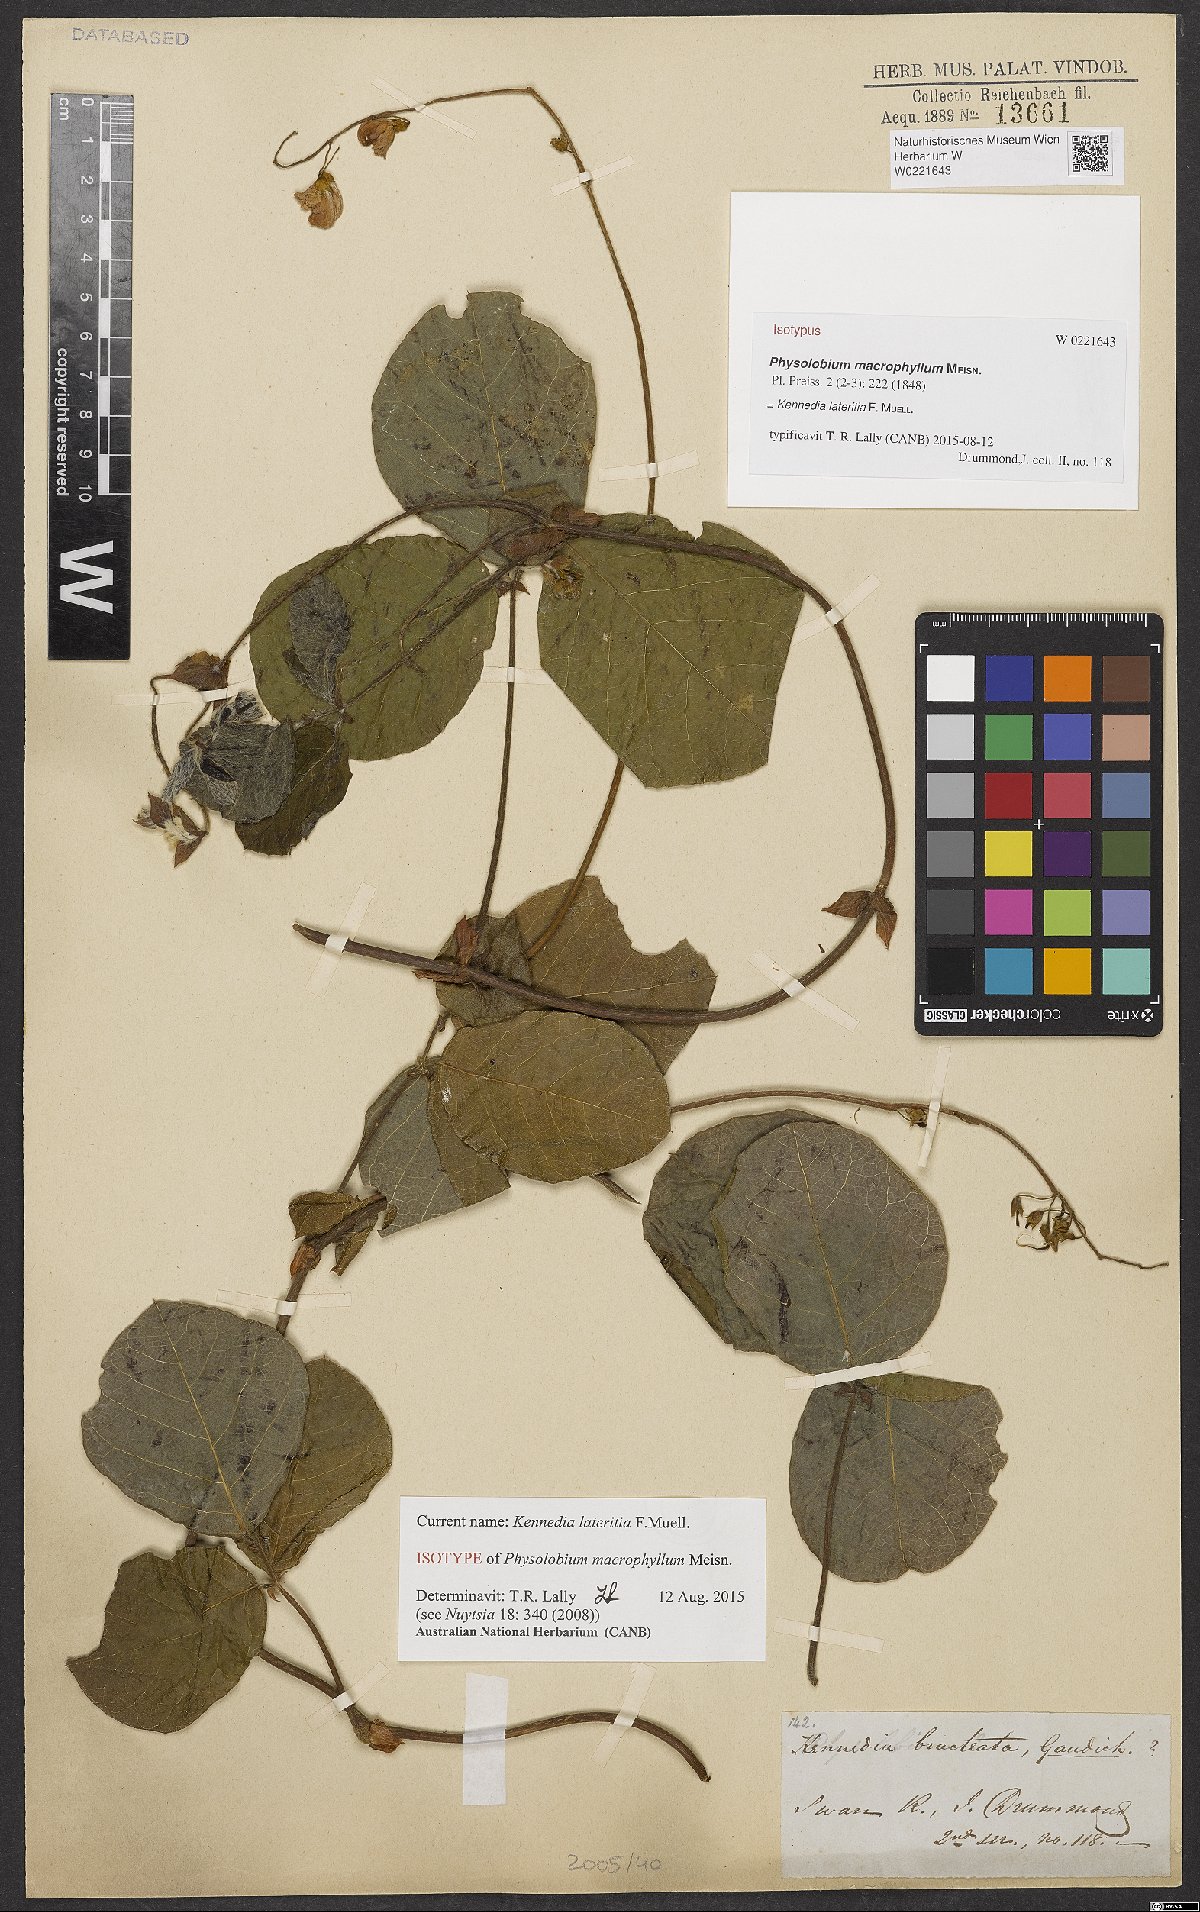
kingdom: Plantae
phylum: Tracheophyta
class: Magnoliopsida
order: Fabales
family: Fabaceae
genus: Kennedia
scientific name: Kennedia lateritia
